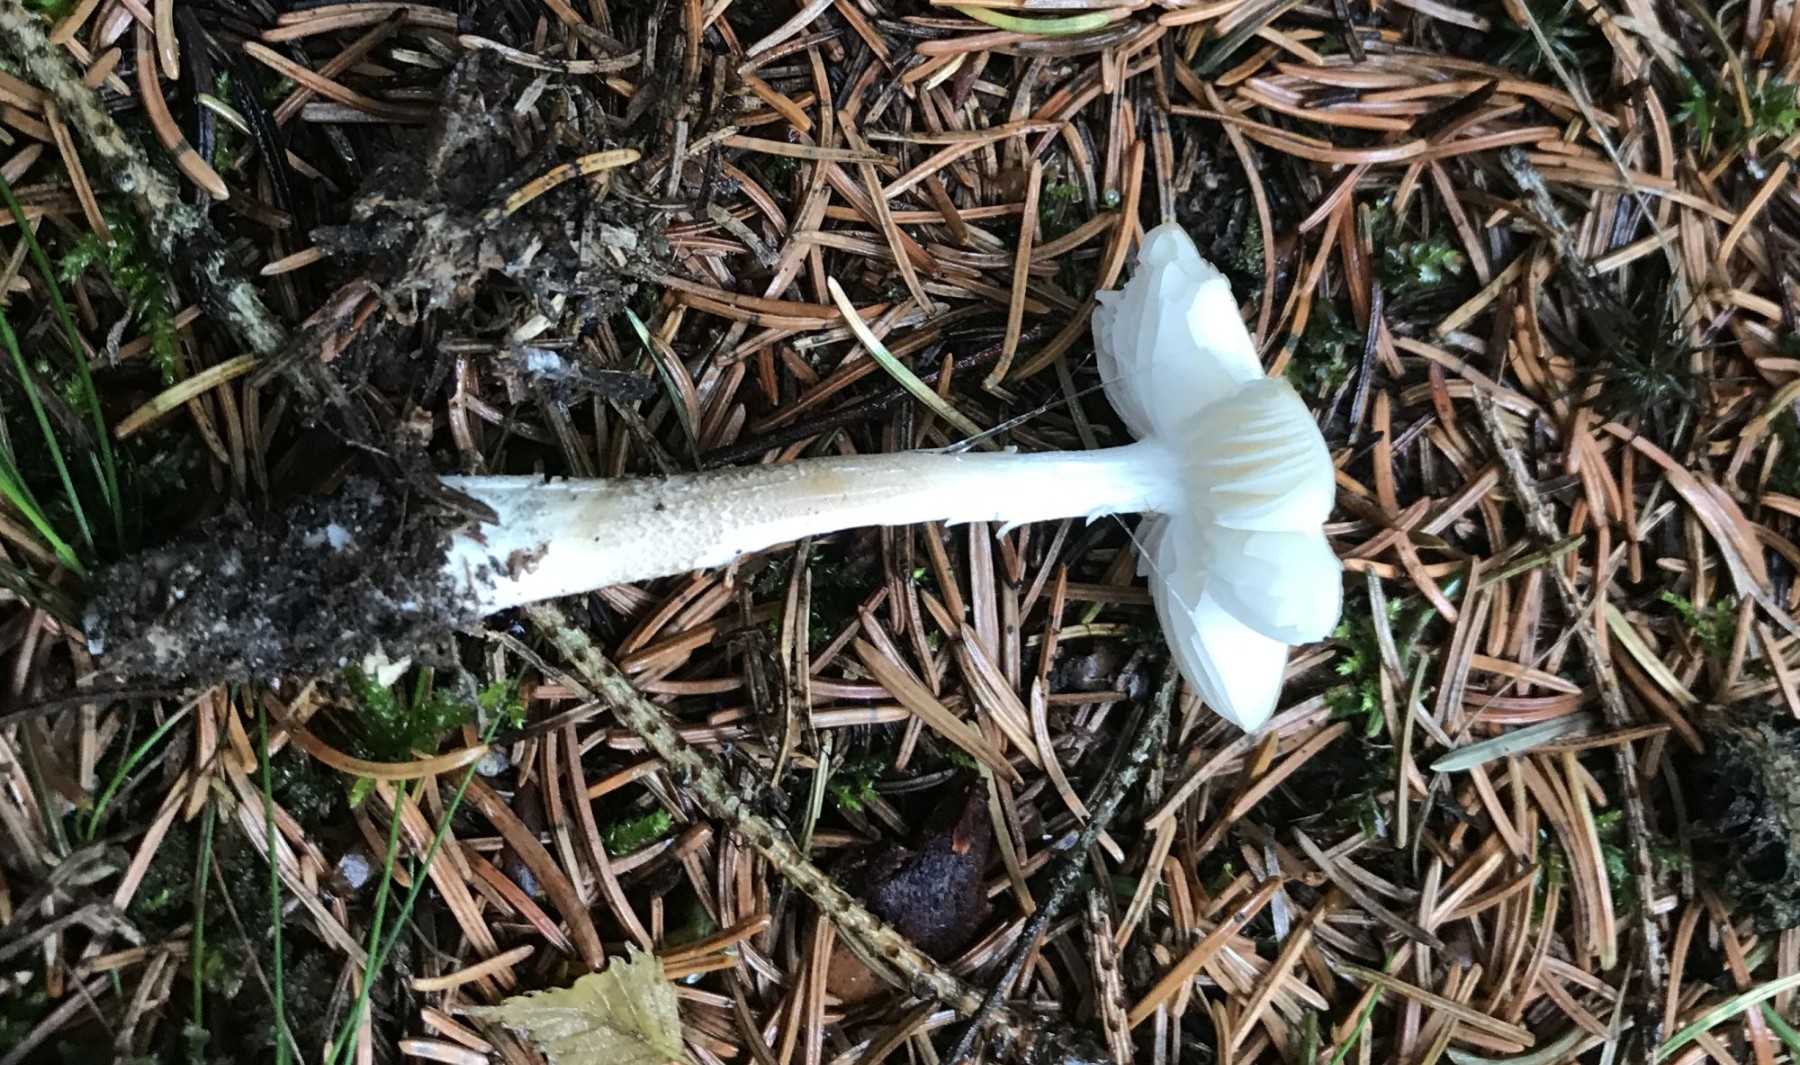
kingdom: Fungi
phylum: Basidiomycota
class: Agaricomycetes
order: Agaricales
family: Physalacriaceae
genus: Hymenopellis
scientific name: Hymenopellis radicata
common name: almindelig pælerodshat
